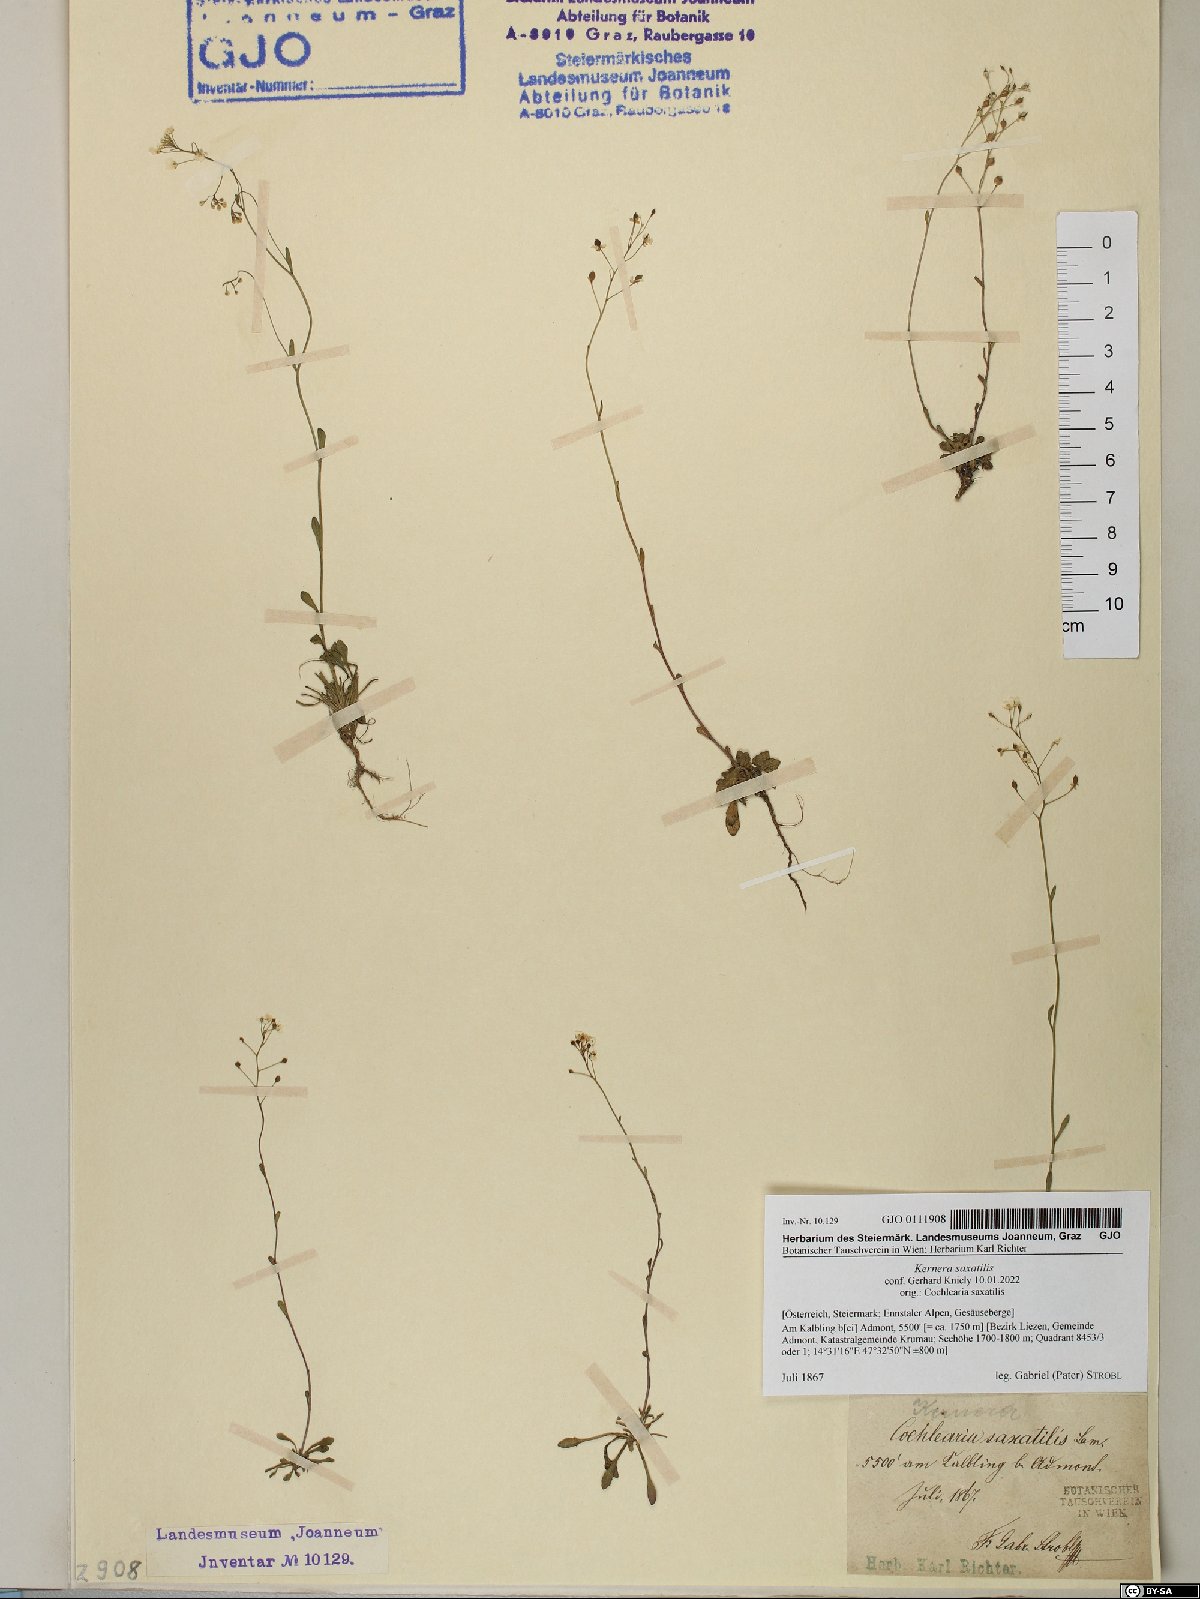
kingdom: Plantae
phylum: Tracheophyta
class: Magnoliopsida
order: Brassicales
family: Brassicaceae
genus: Kernera
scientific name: Kernera saxatilis
